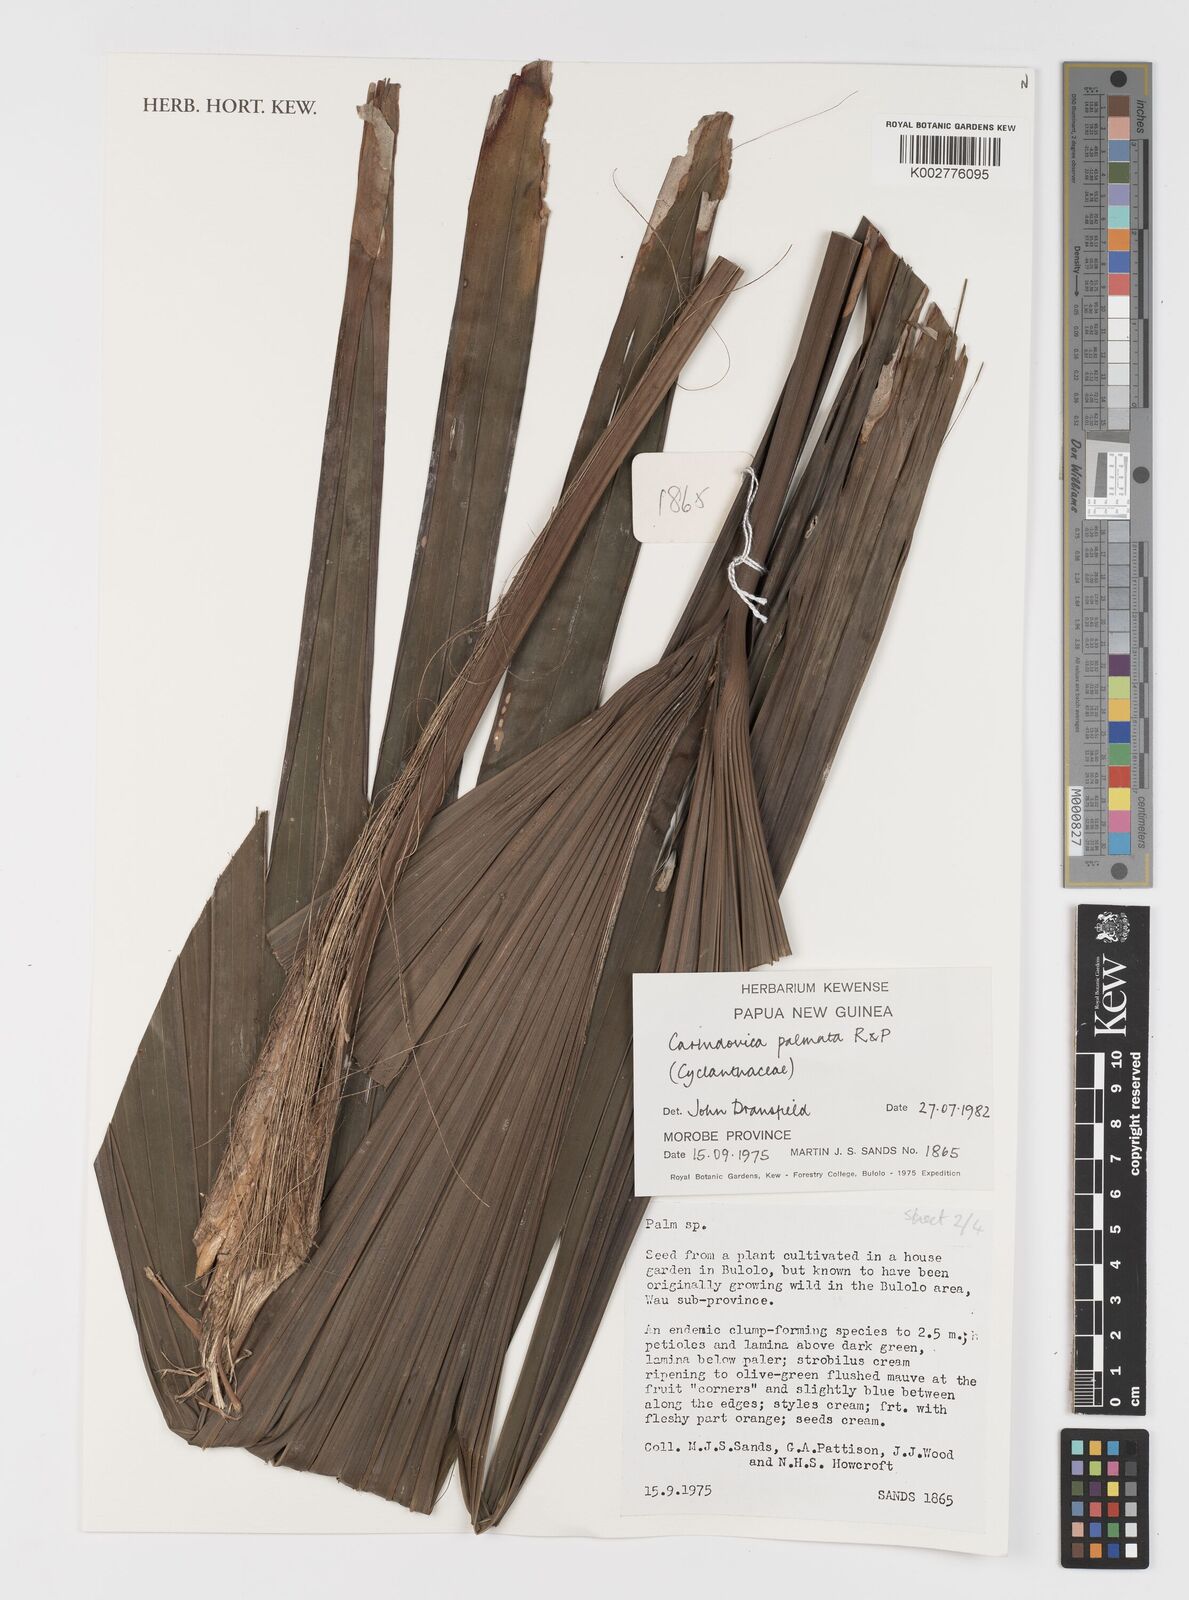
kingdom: Plantae
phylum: Tracheophyta
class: Liliopsida
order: Pandanales
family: Cyclanthaceae
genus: Carludovica
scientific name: Carludovica palmata
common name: Panama hat plant
